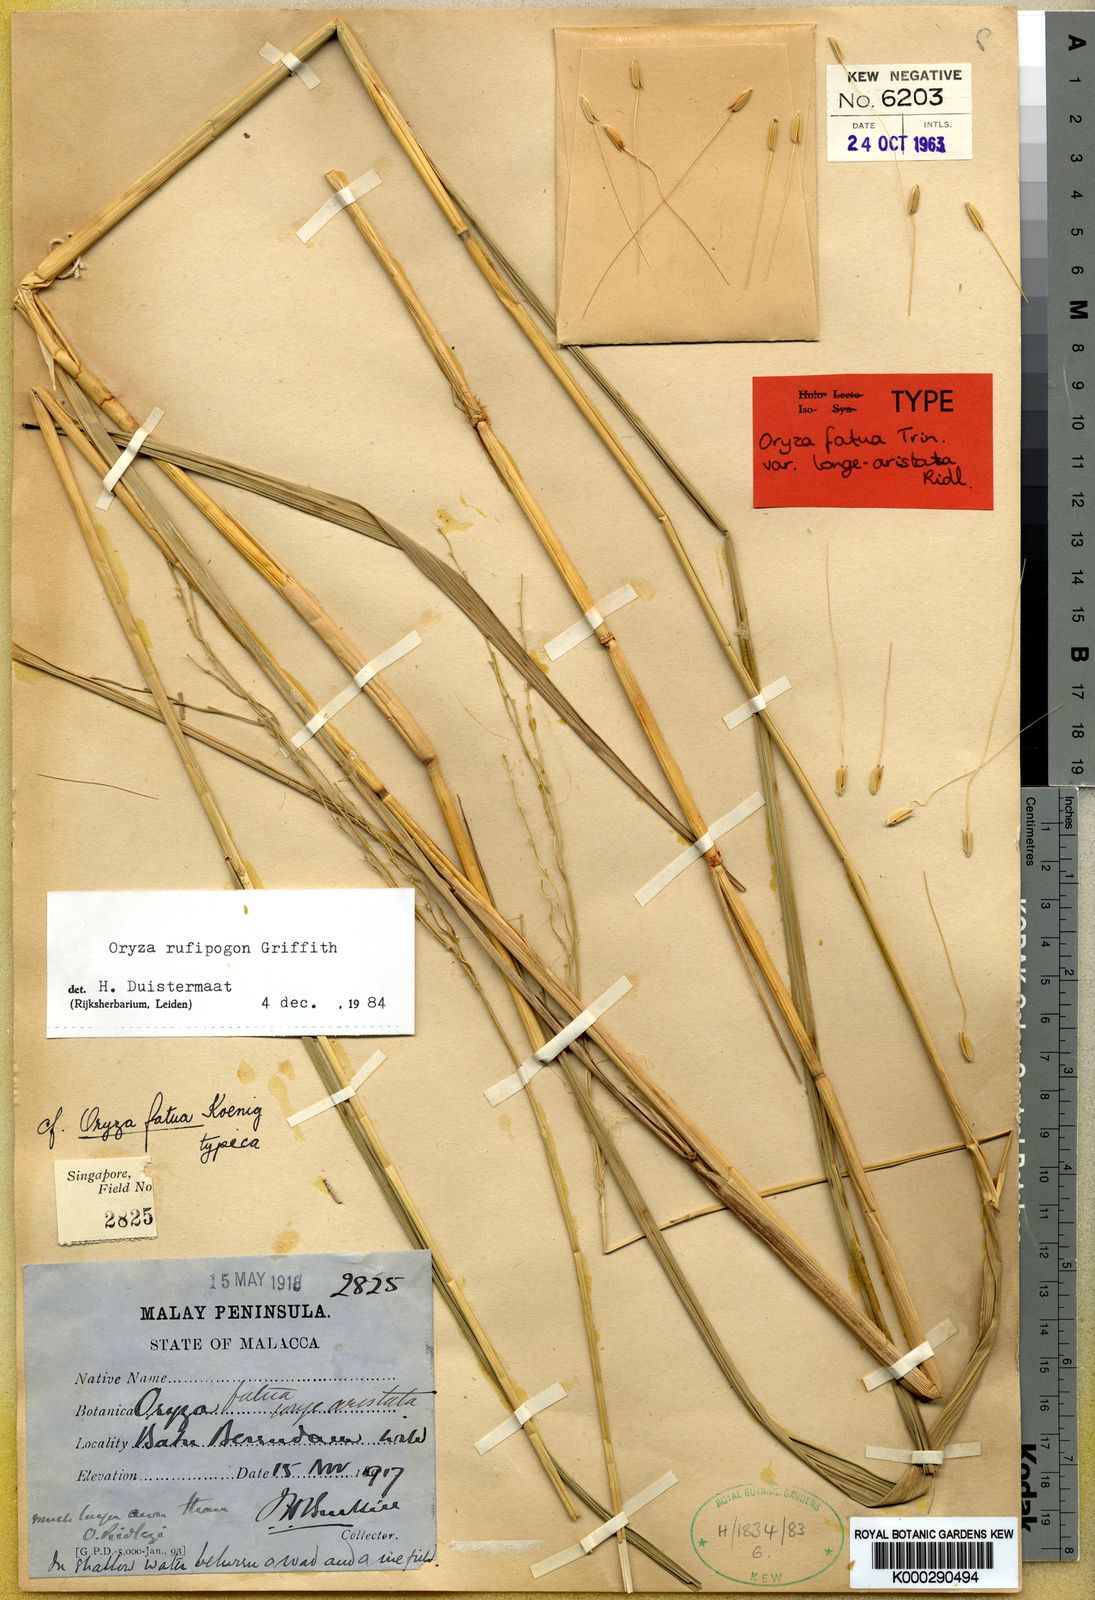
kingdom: Plantae
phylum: Tracheophyta
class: Liliopsida
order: Poales
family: Poaceae
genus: Oryza
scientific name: Oryza rufipogon
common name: Red rice
